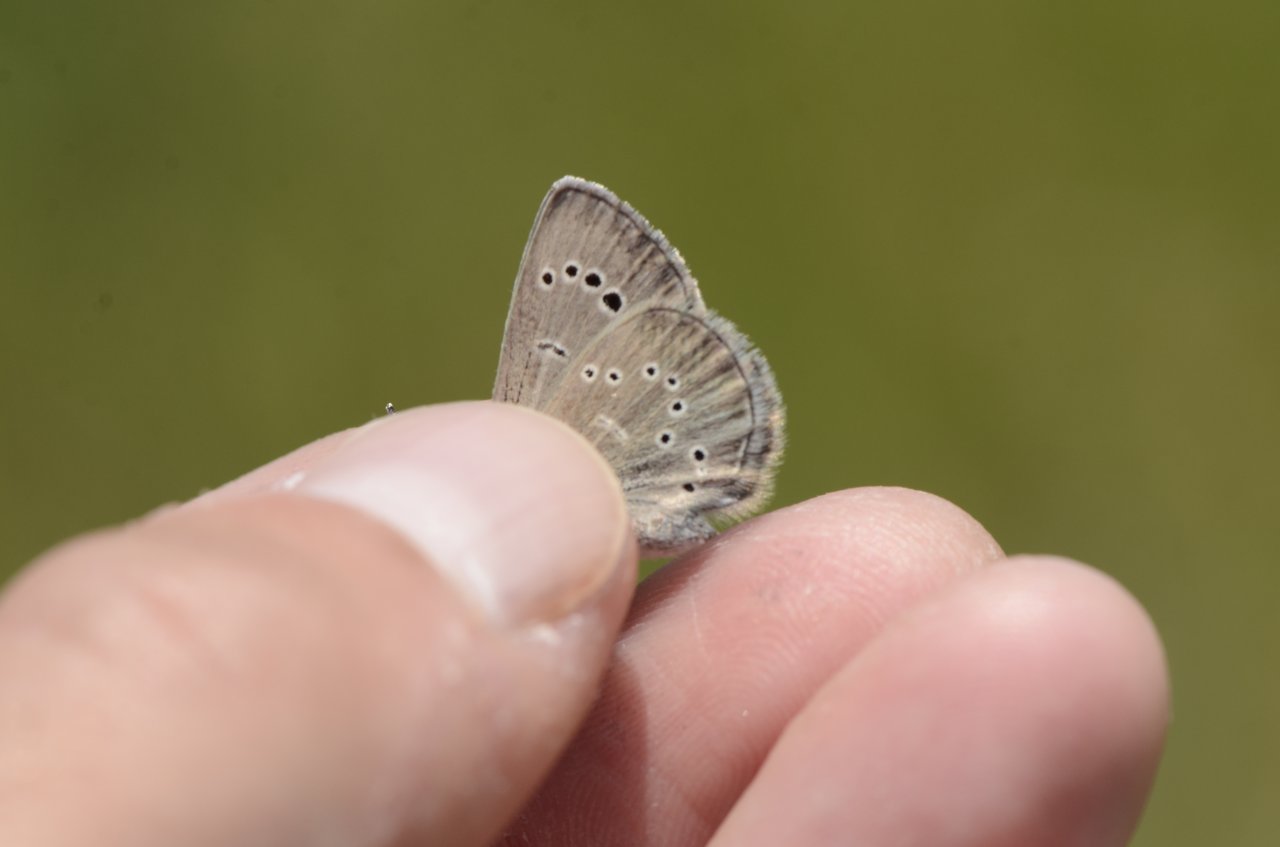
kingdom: Animalia
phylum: Arthropoda
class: Insecta
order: Lepidoptera
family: Lycaenidae
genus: Glaucopsyche
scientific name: Glaucopsyche lygdamus
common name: Silvery Blue
